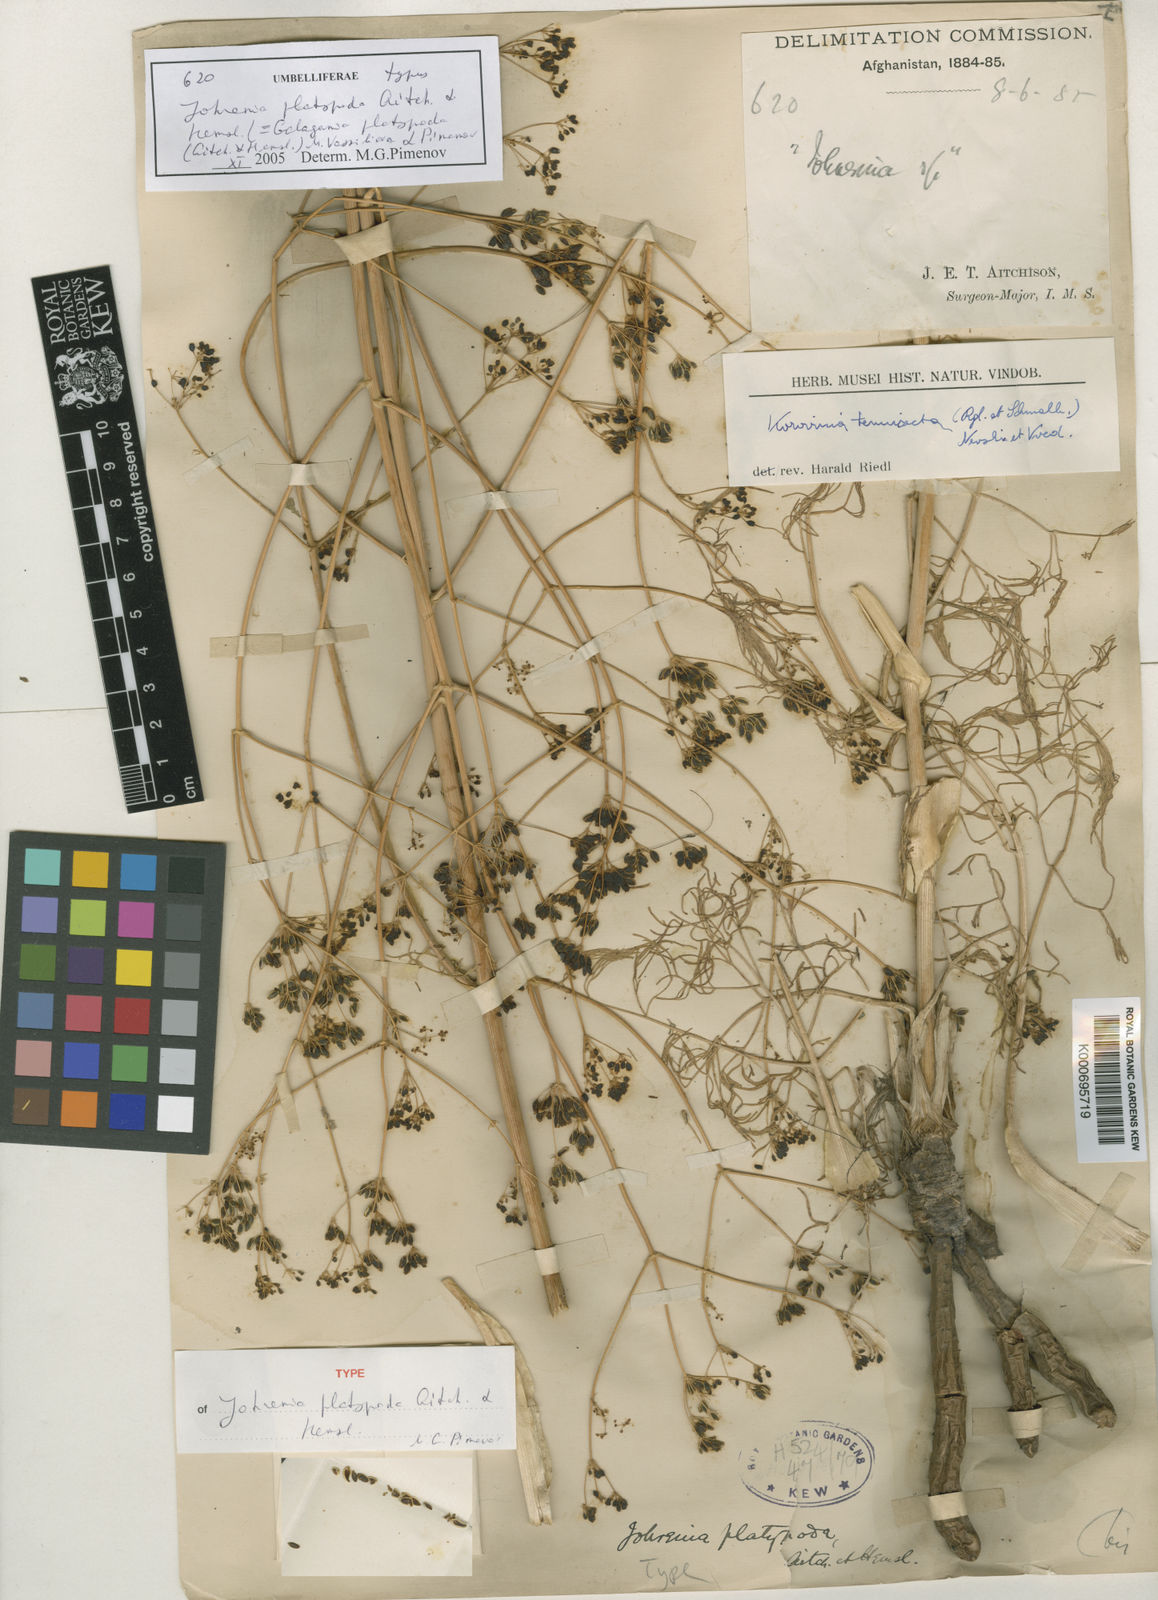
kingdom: Plantae
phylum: Tracheophyta
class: Magnoliopsida
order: Apiales
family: Apiaceae
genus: Galagania
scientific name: Galagania tenuisecta
